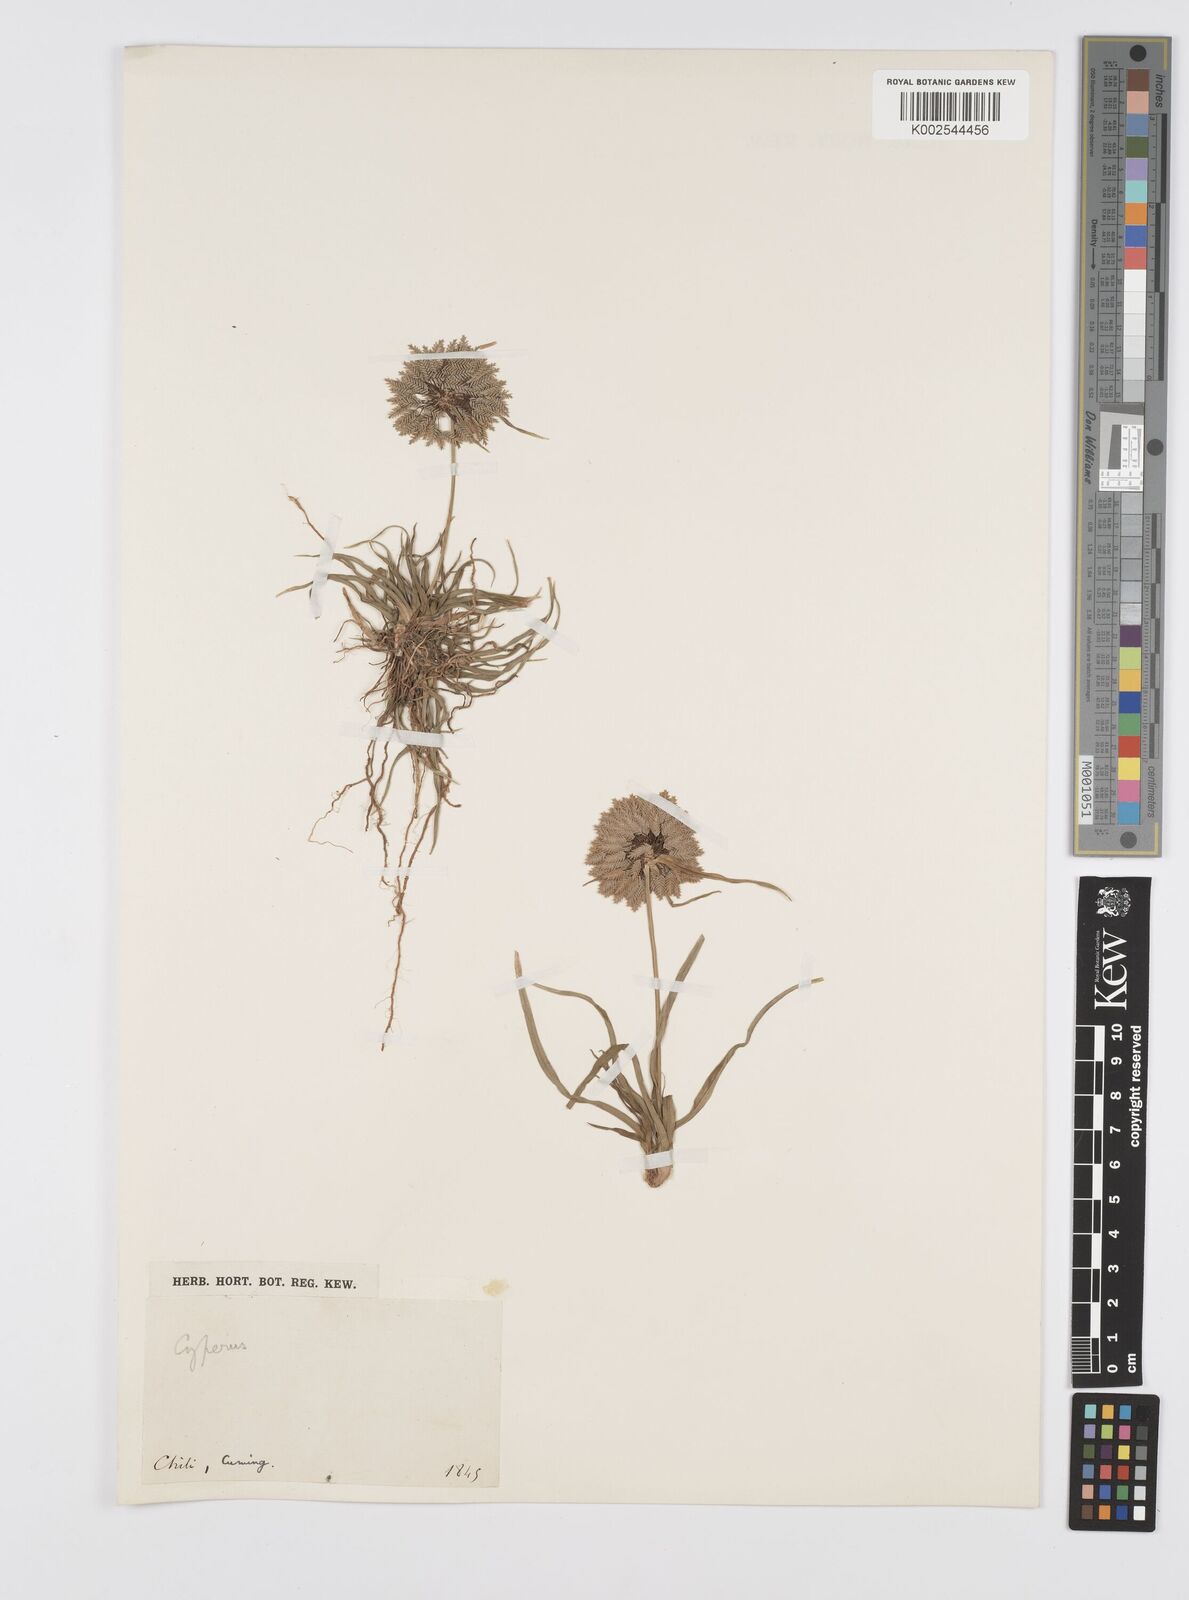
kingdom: Plantae
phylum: Tracheophyta
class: Liliopsida
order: Poales
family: Cyperaceae
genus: Cyperus
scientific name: Cyperus
